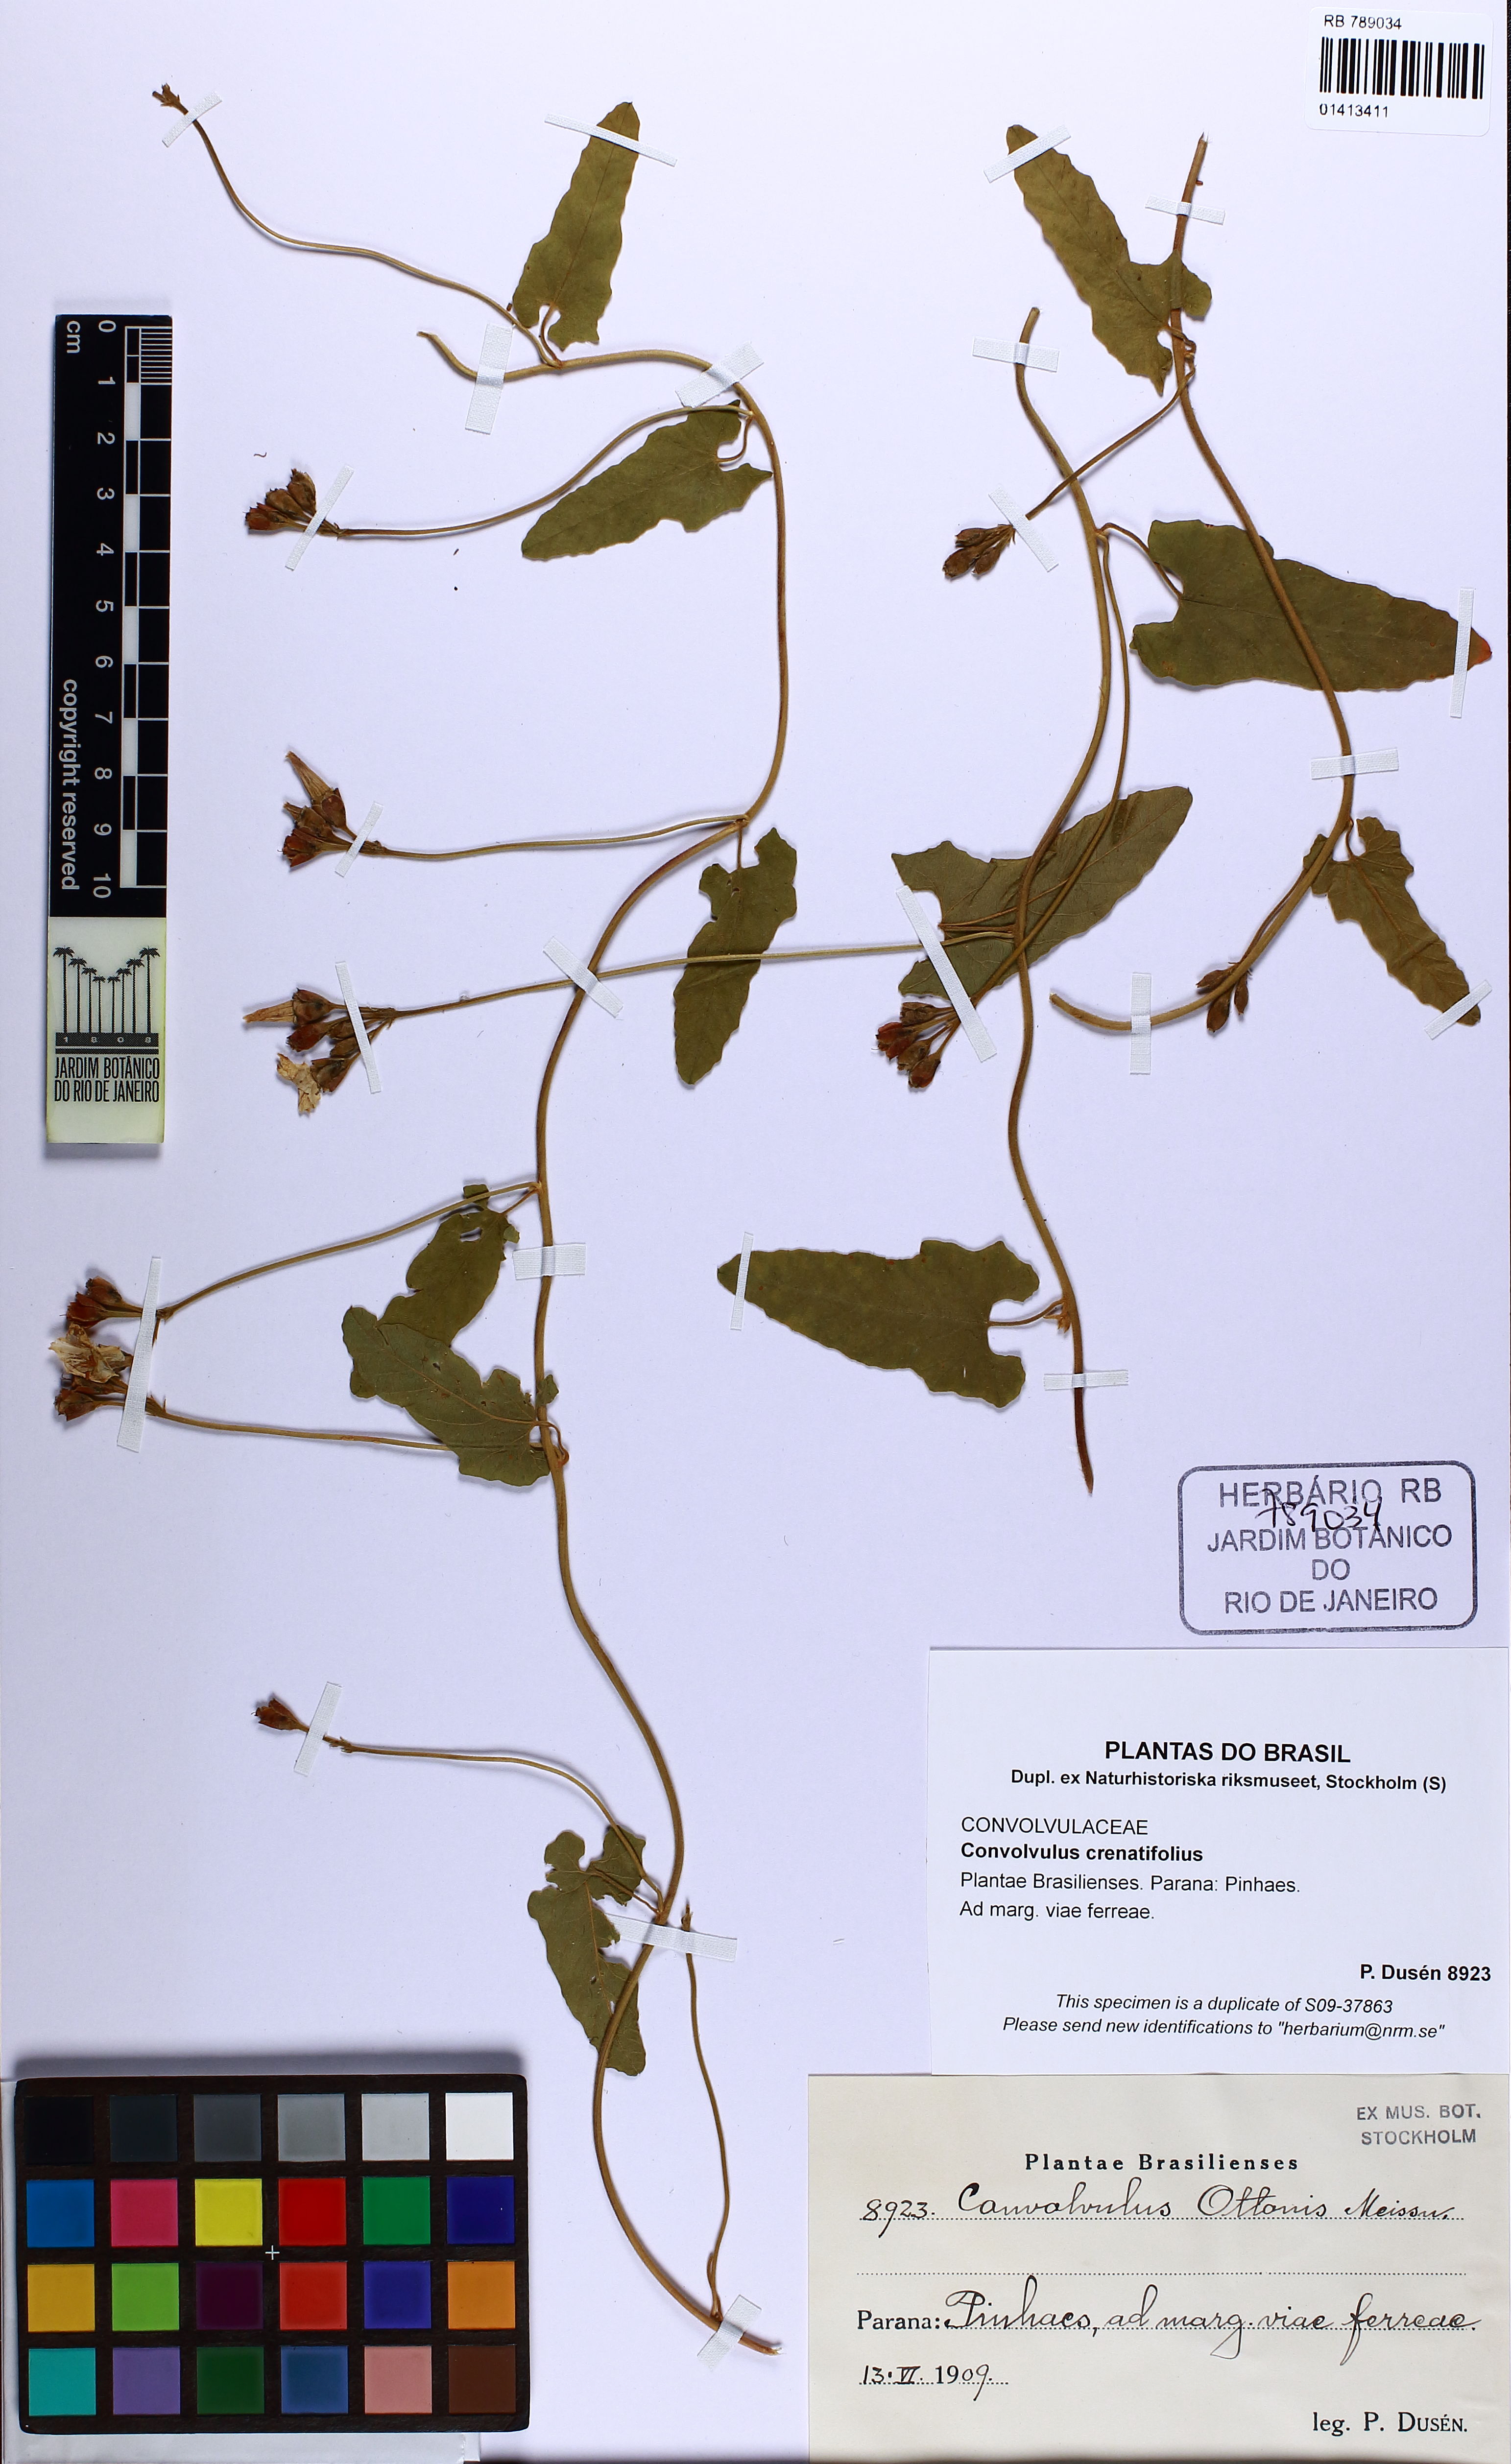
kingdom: Plantae
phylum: Tracheophyta
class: Magnoliopsida
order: Solanales
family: Convolvulaceae
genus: Convolvulus
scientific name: Convolvulus crenatifolius
